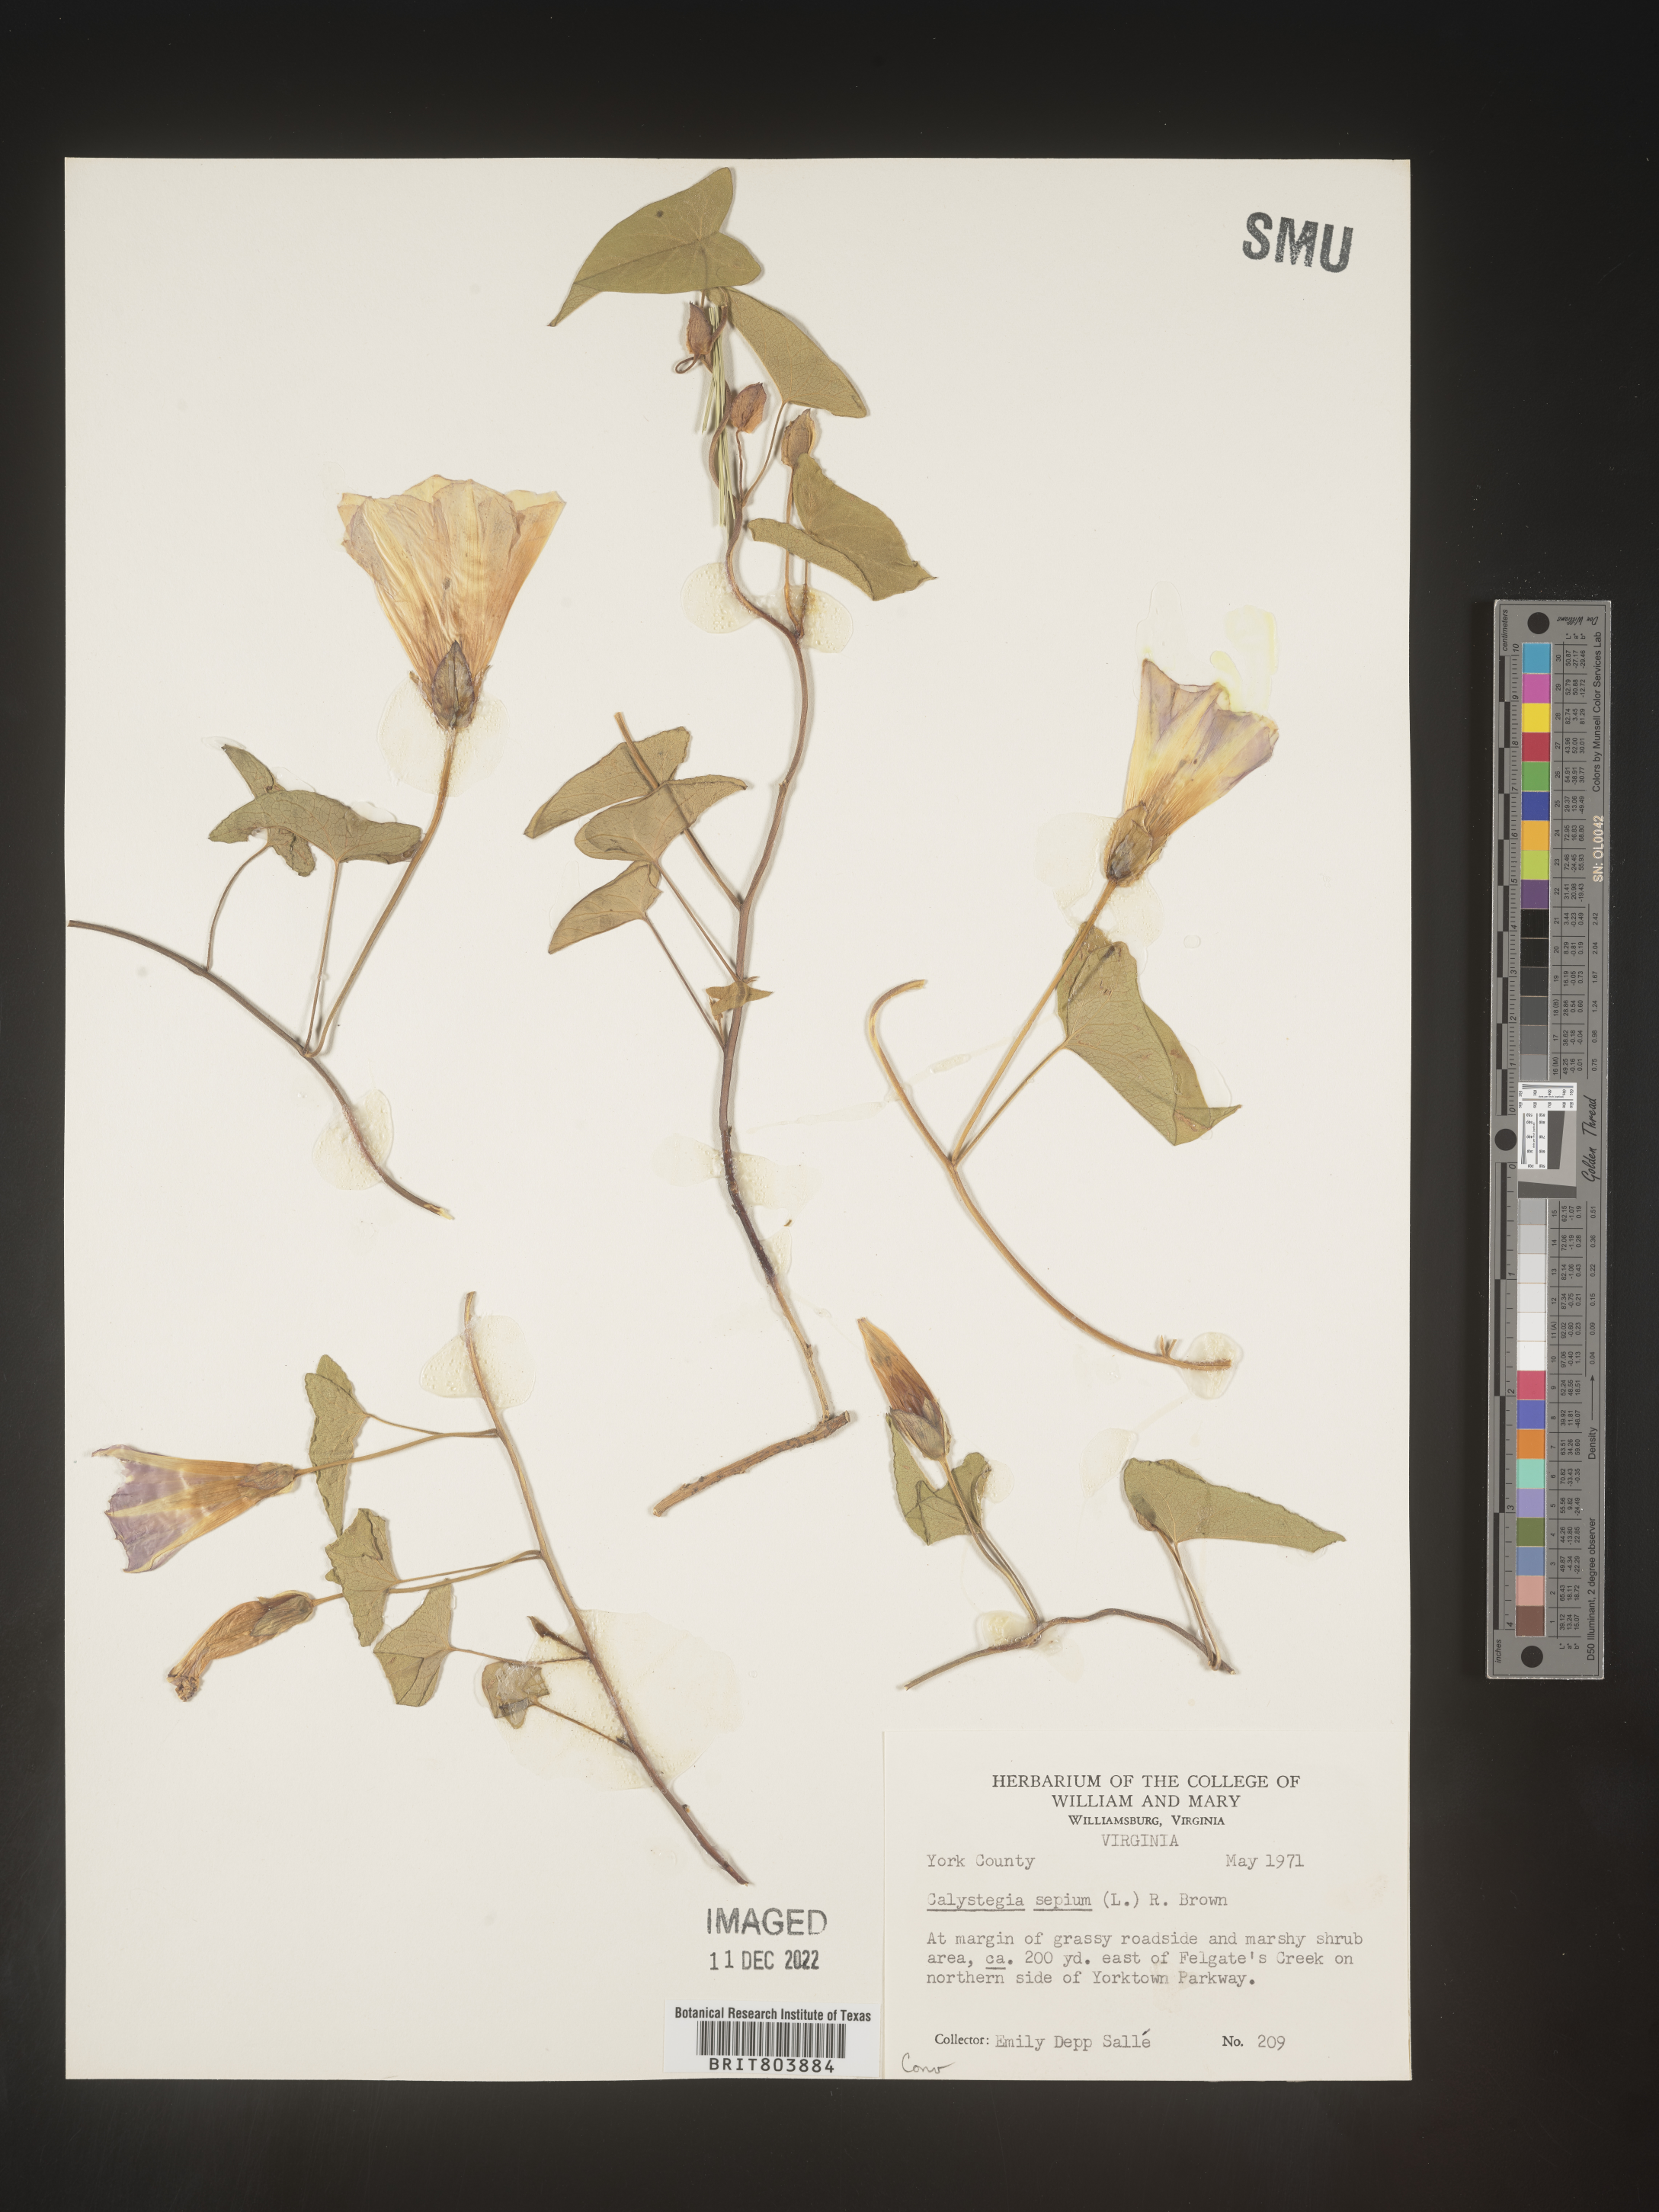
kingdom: Plantae
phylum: Tracheophyta
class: Magnoliopsida
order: Solanales
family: Convolvulaceae
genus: Calystegia
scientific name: Calystegia sepium
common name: Hedge bindweed
